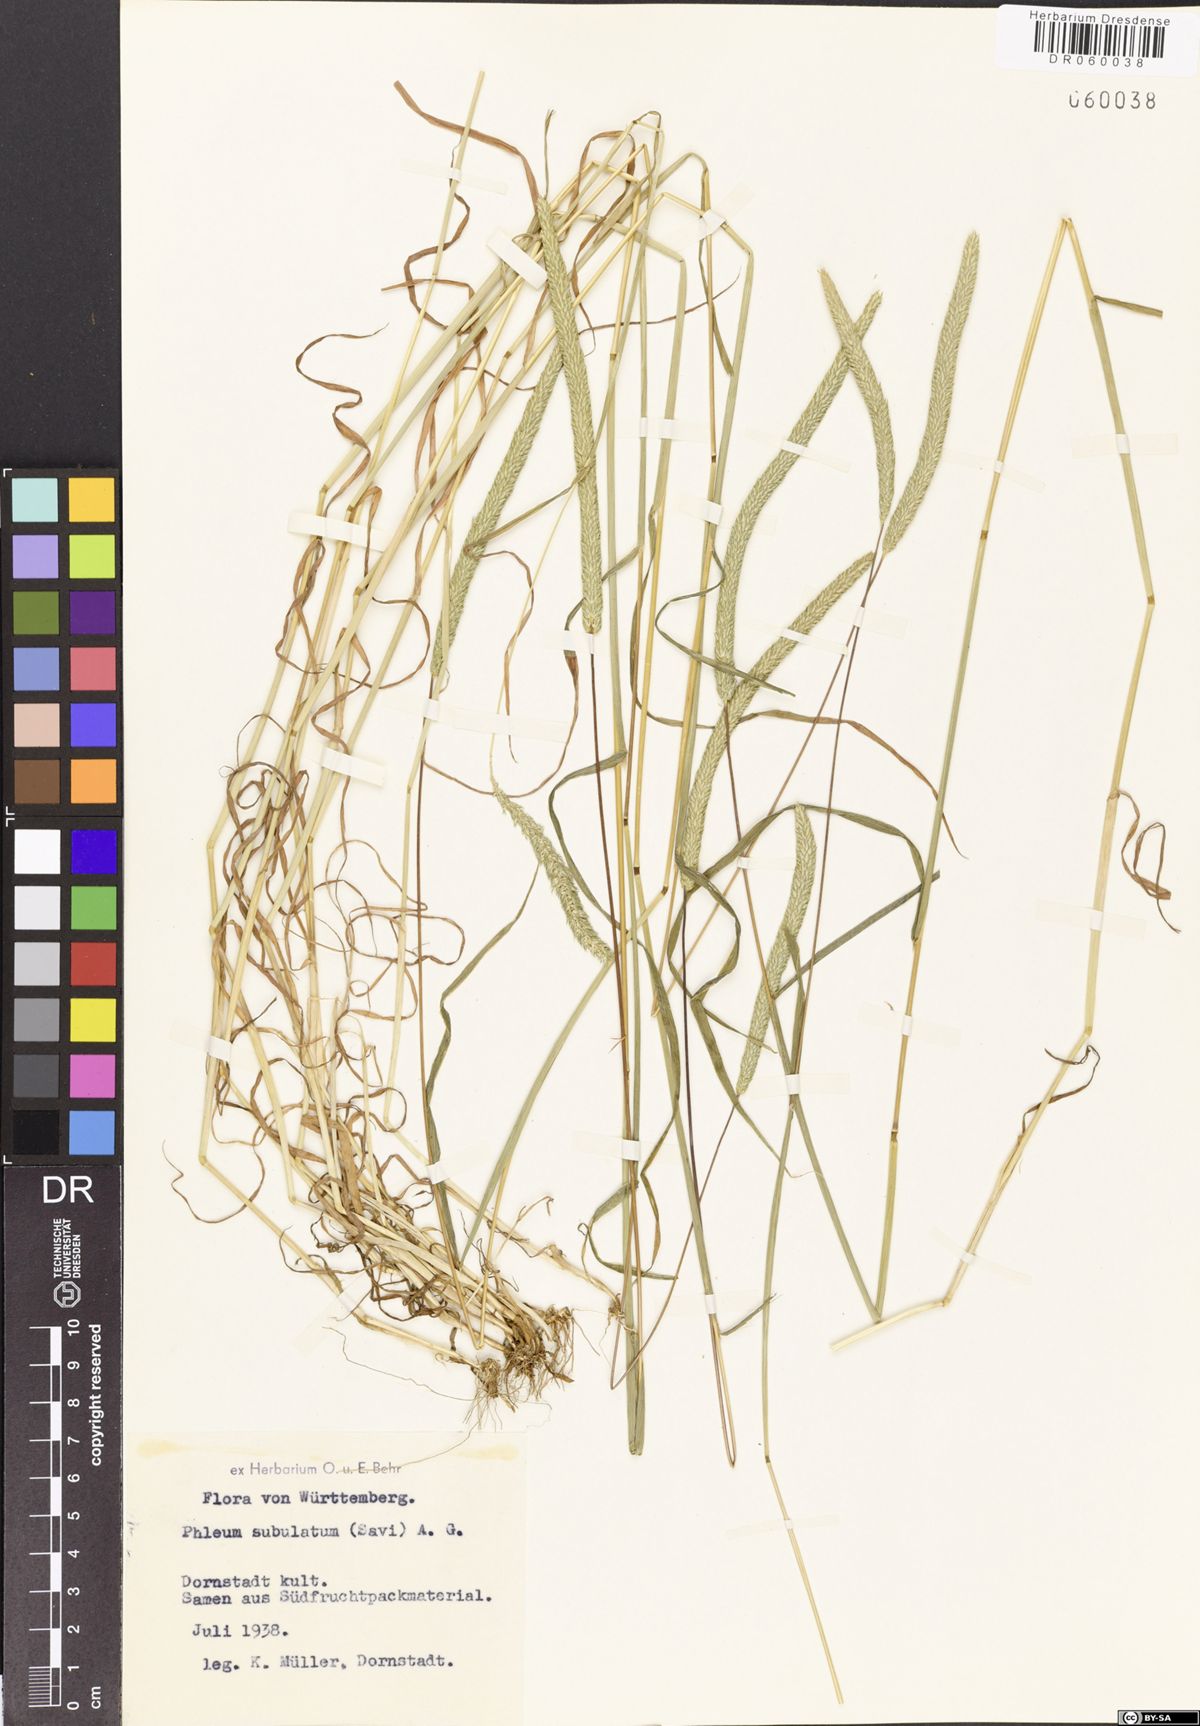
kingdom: Plantae
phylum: Tracheophyta
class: Liliopsida
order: Poales
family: Poaceae
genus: Phleum
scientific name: Phleum subulatum
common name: Italian timothy
